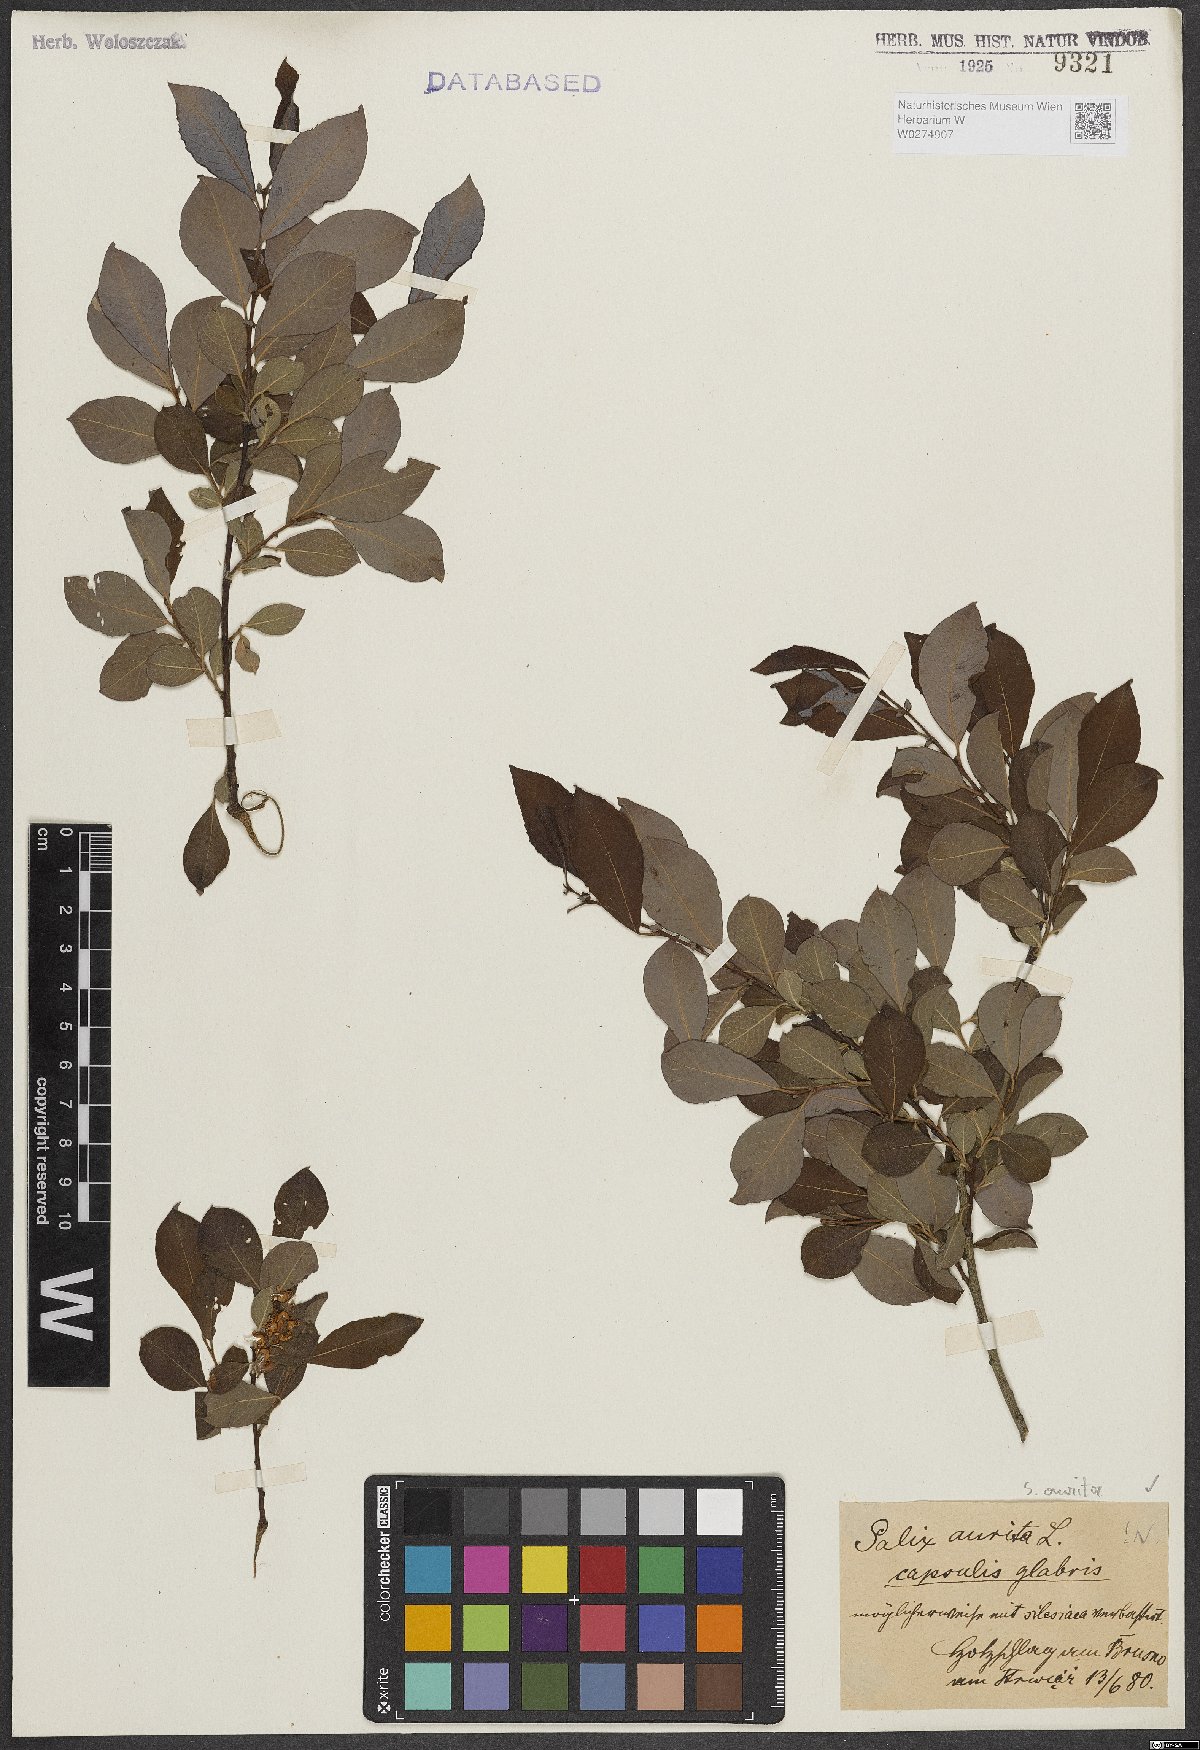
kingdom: Plantae
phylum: Tracheophyta
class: Magnoliopsida
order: Malpighiales
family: Salicaceae
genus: Salix
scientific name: Salix aurita
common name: Eared willow
